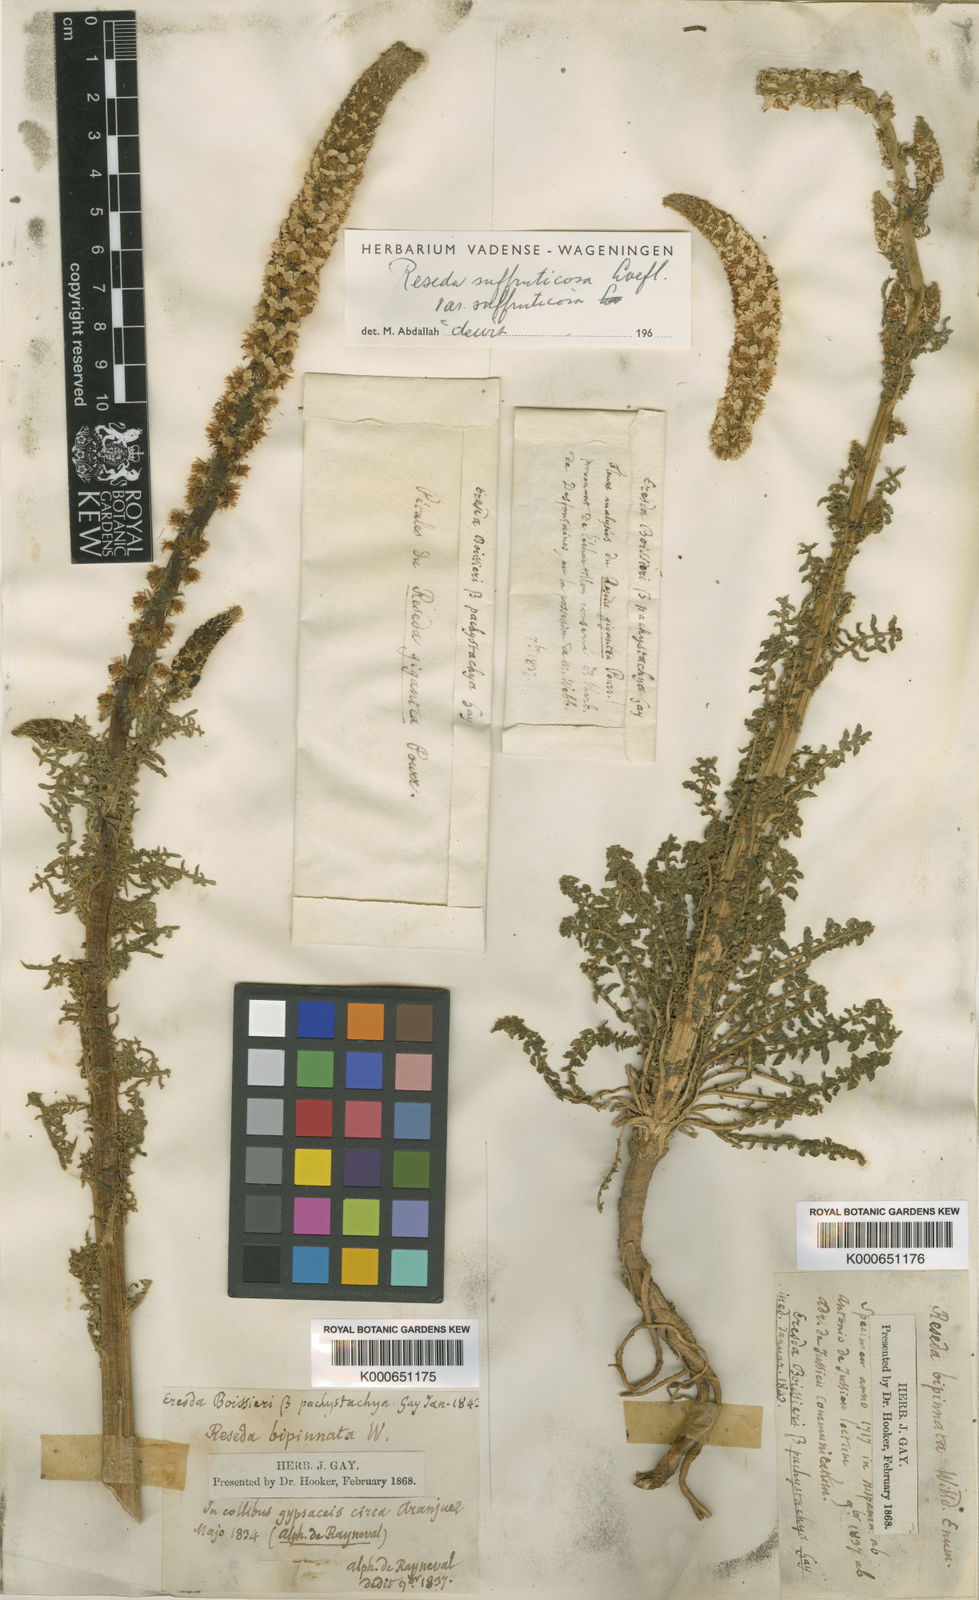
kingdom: Plantae
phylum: Tracheophyta
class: Magnoliopsida
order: Brassicales
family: Resedaceae
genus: Reseda
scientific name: Reseda suffruticosa
